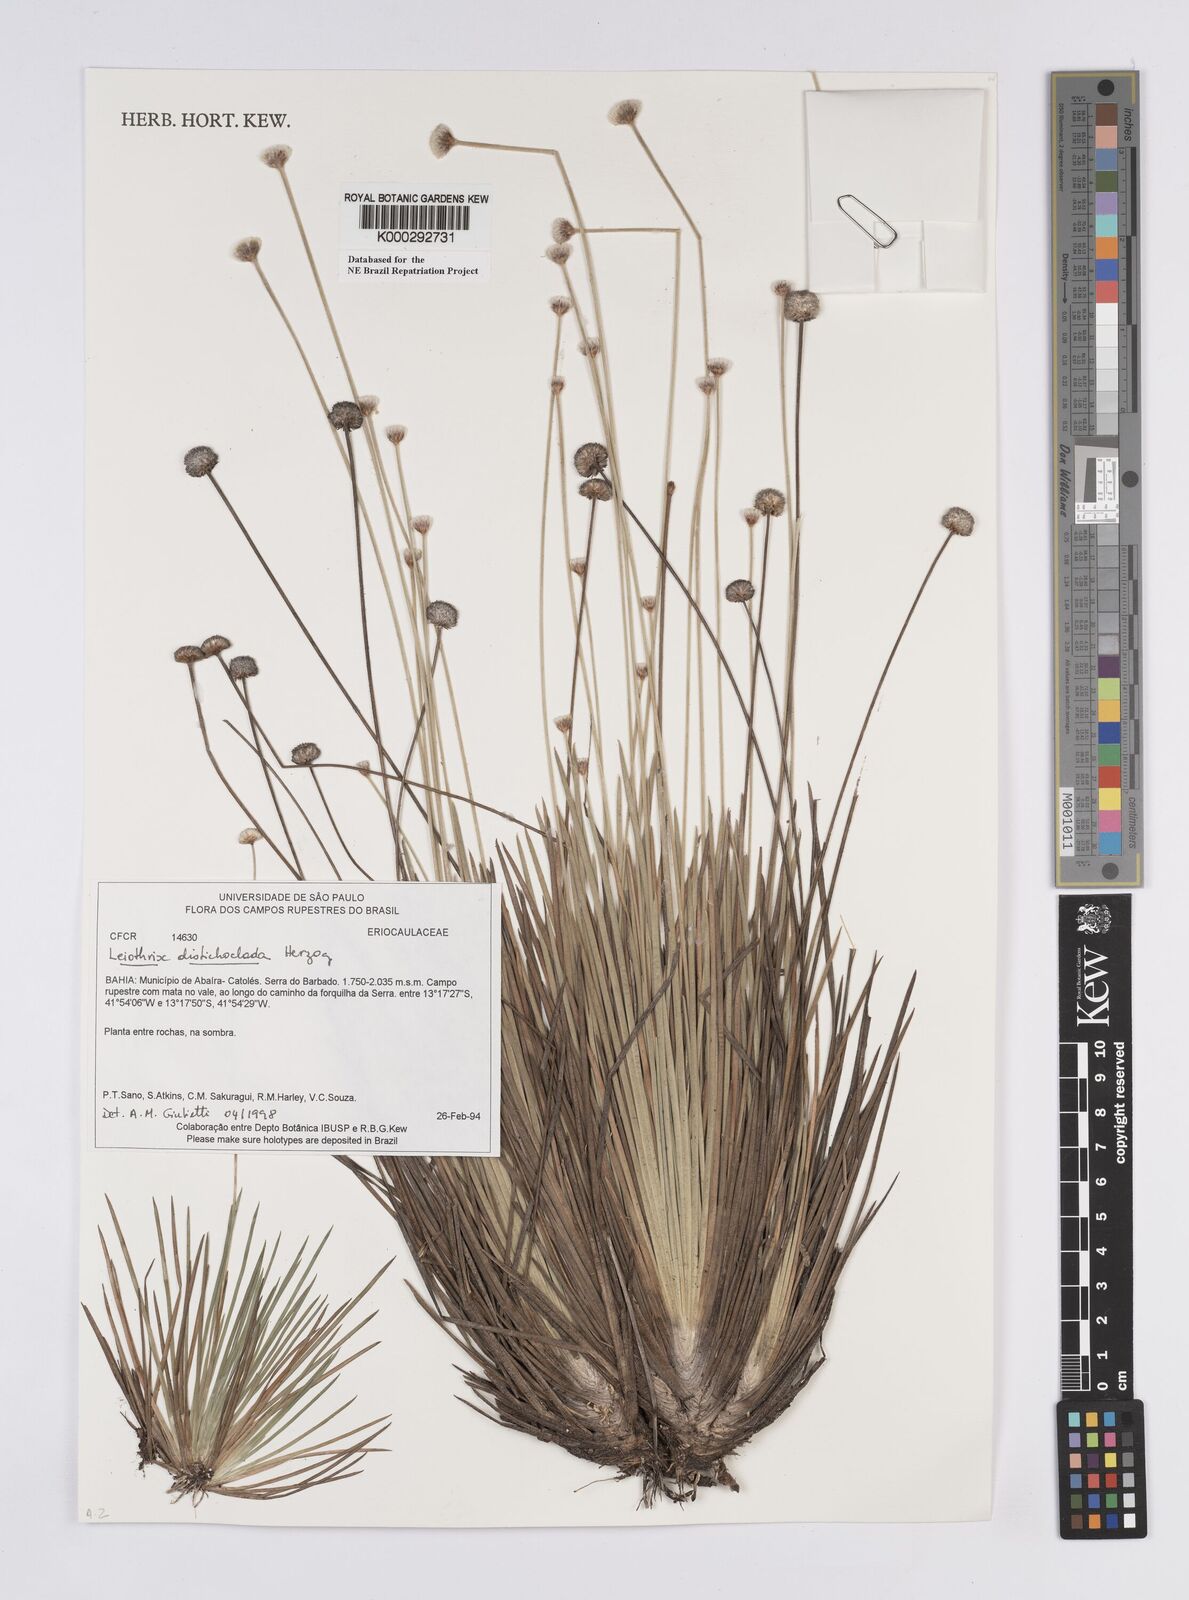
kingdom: Plantae
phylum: Tracheophyta
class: Liliopsida
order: Poales
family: Eriocaulaceae
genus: Leiothrix
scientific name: Leiothrix distichoclada
